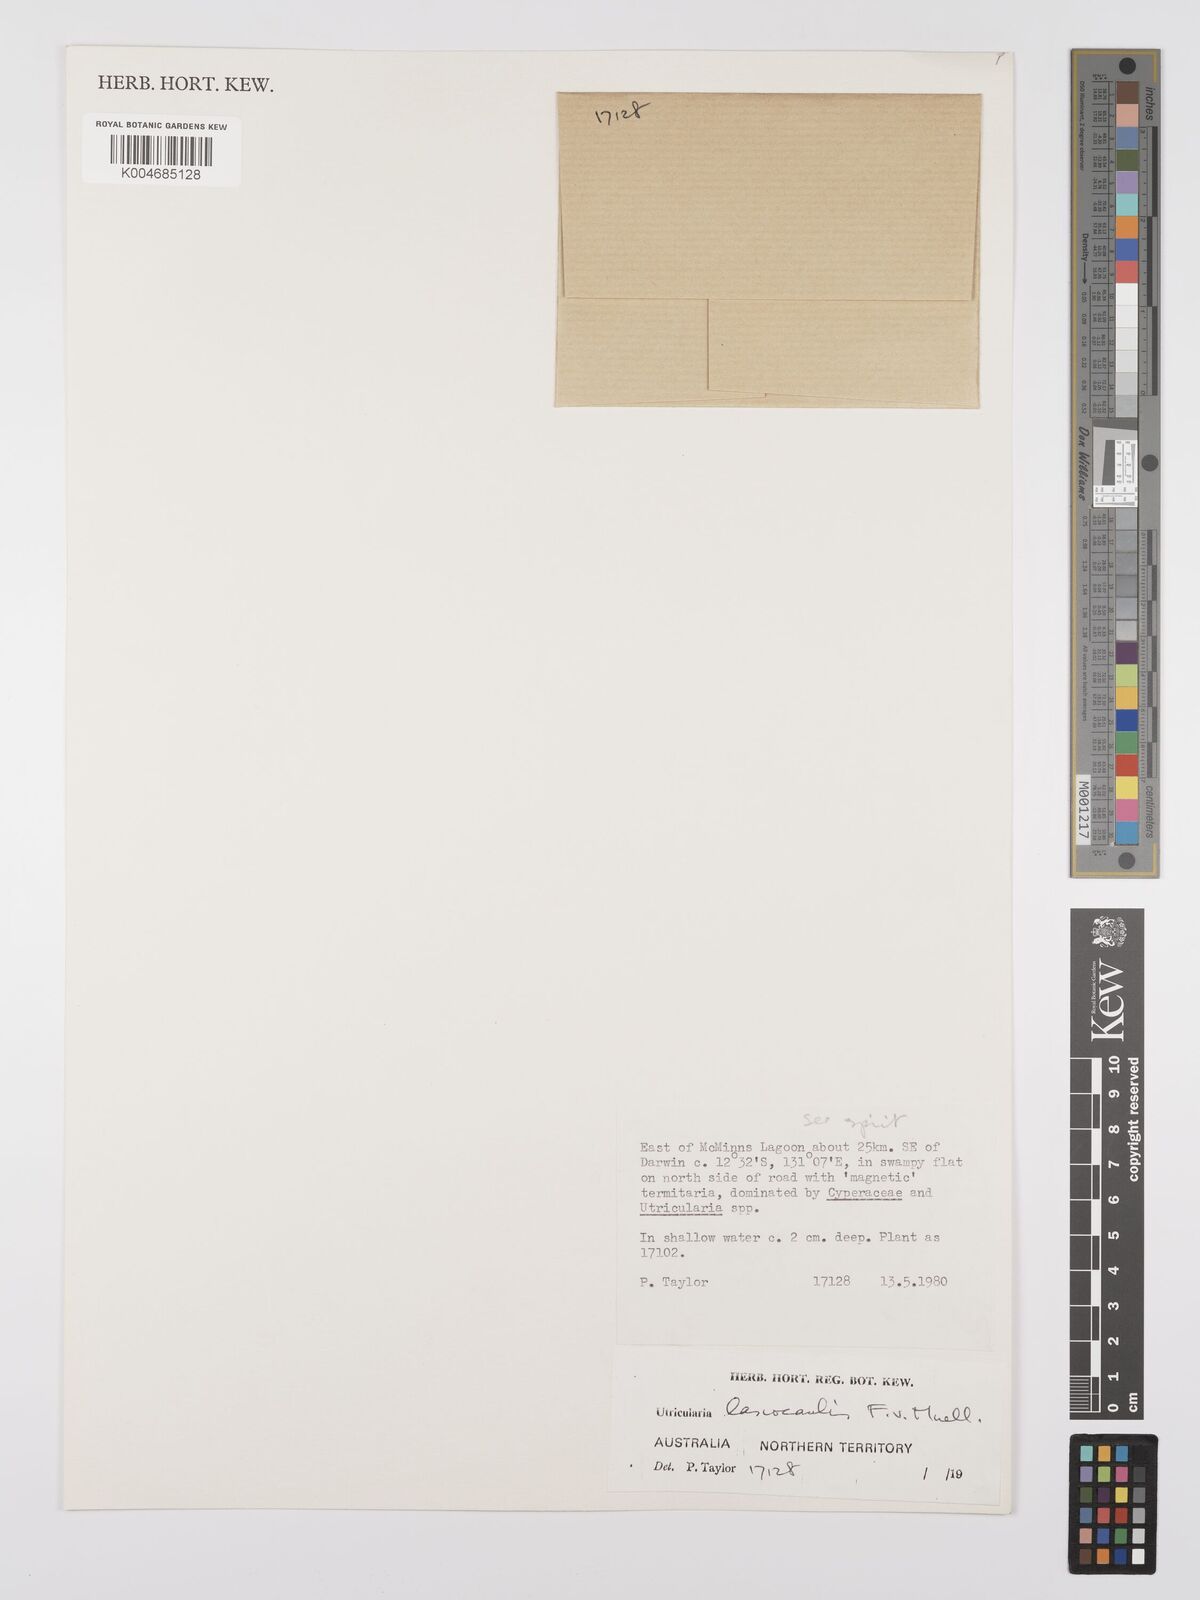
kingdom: Plantae
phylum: Tracheophyta
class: Magnoliopsida
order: Lamiales
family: Lentibulariaceae
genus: Utricularia
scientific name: Utricularia lasiocaulis
